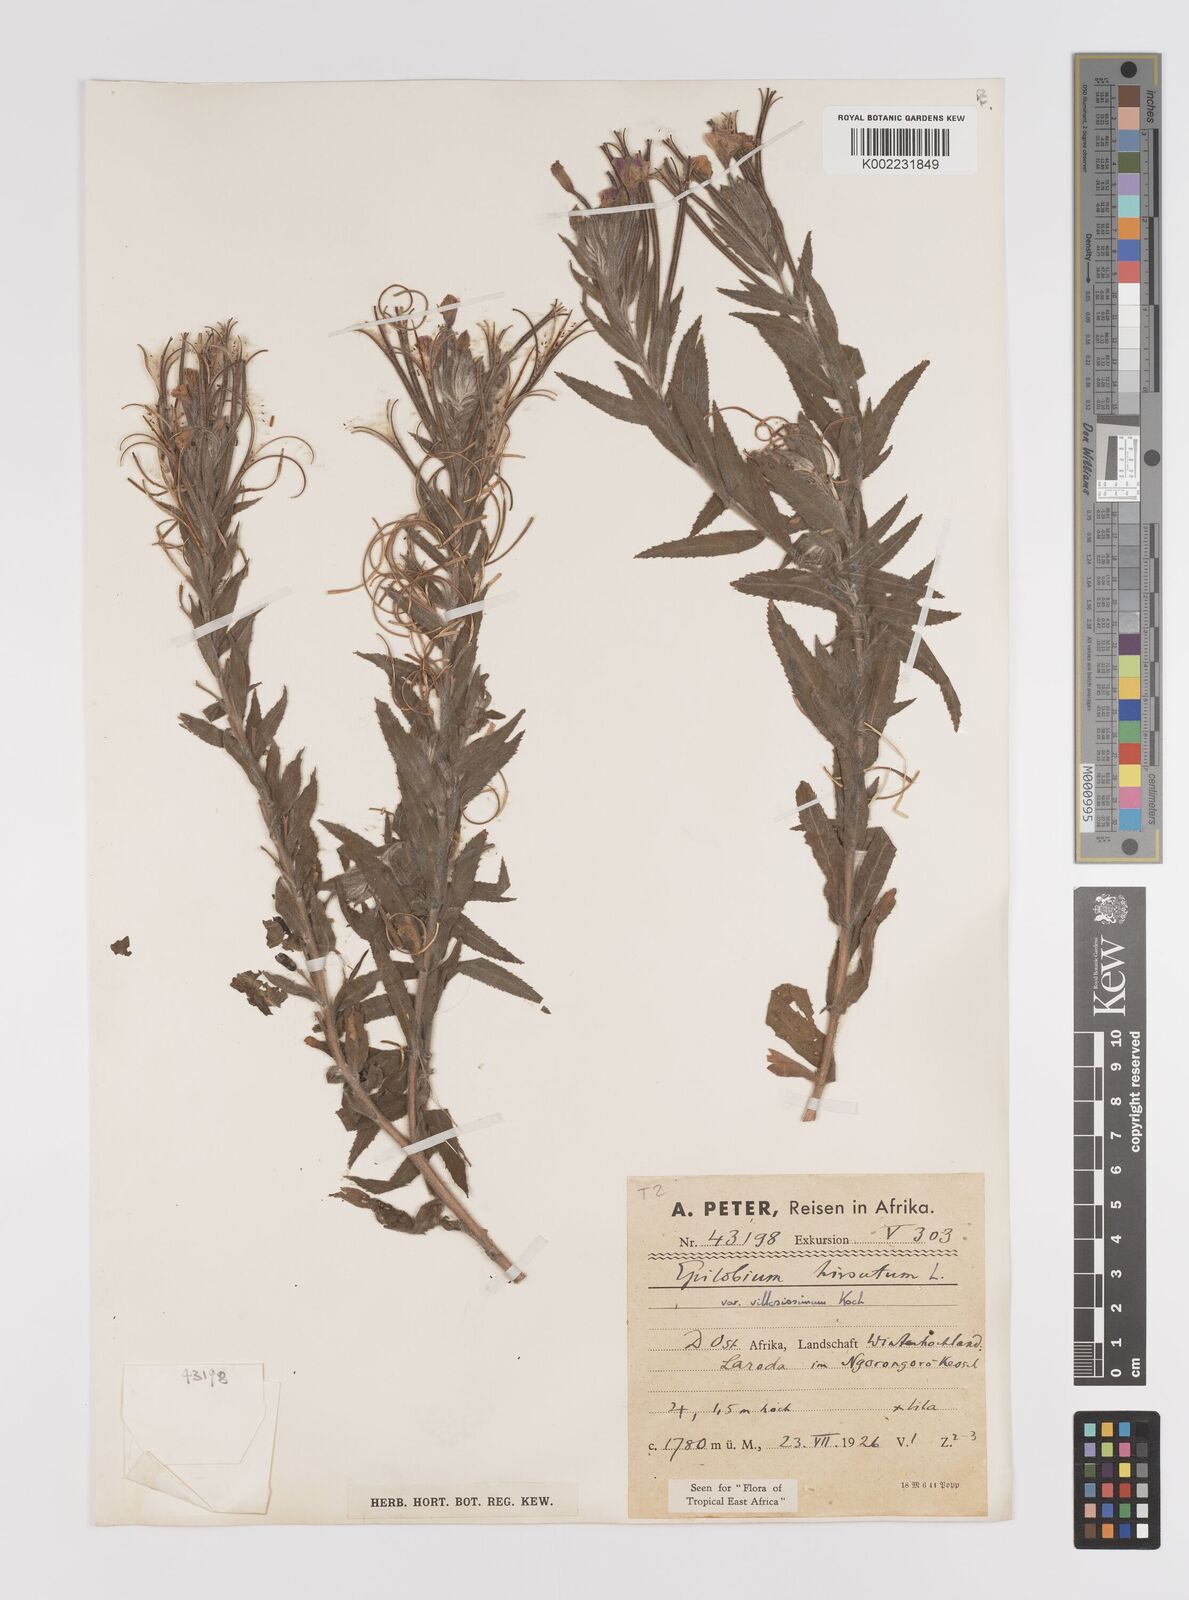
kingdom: Plantae
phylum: Tracheophyta
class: Magnoliopsida
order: Myrtales
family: Onagraceae
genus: Epilobium
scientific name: Epilobium hirsutum
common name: Great willowherb
